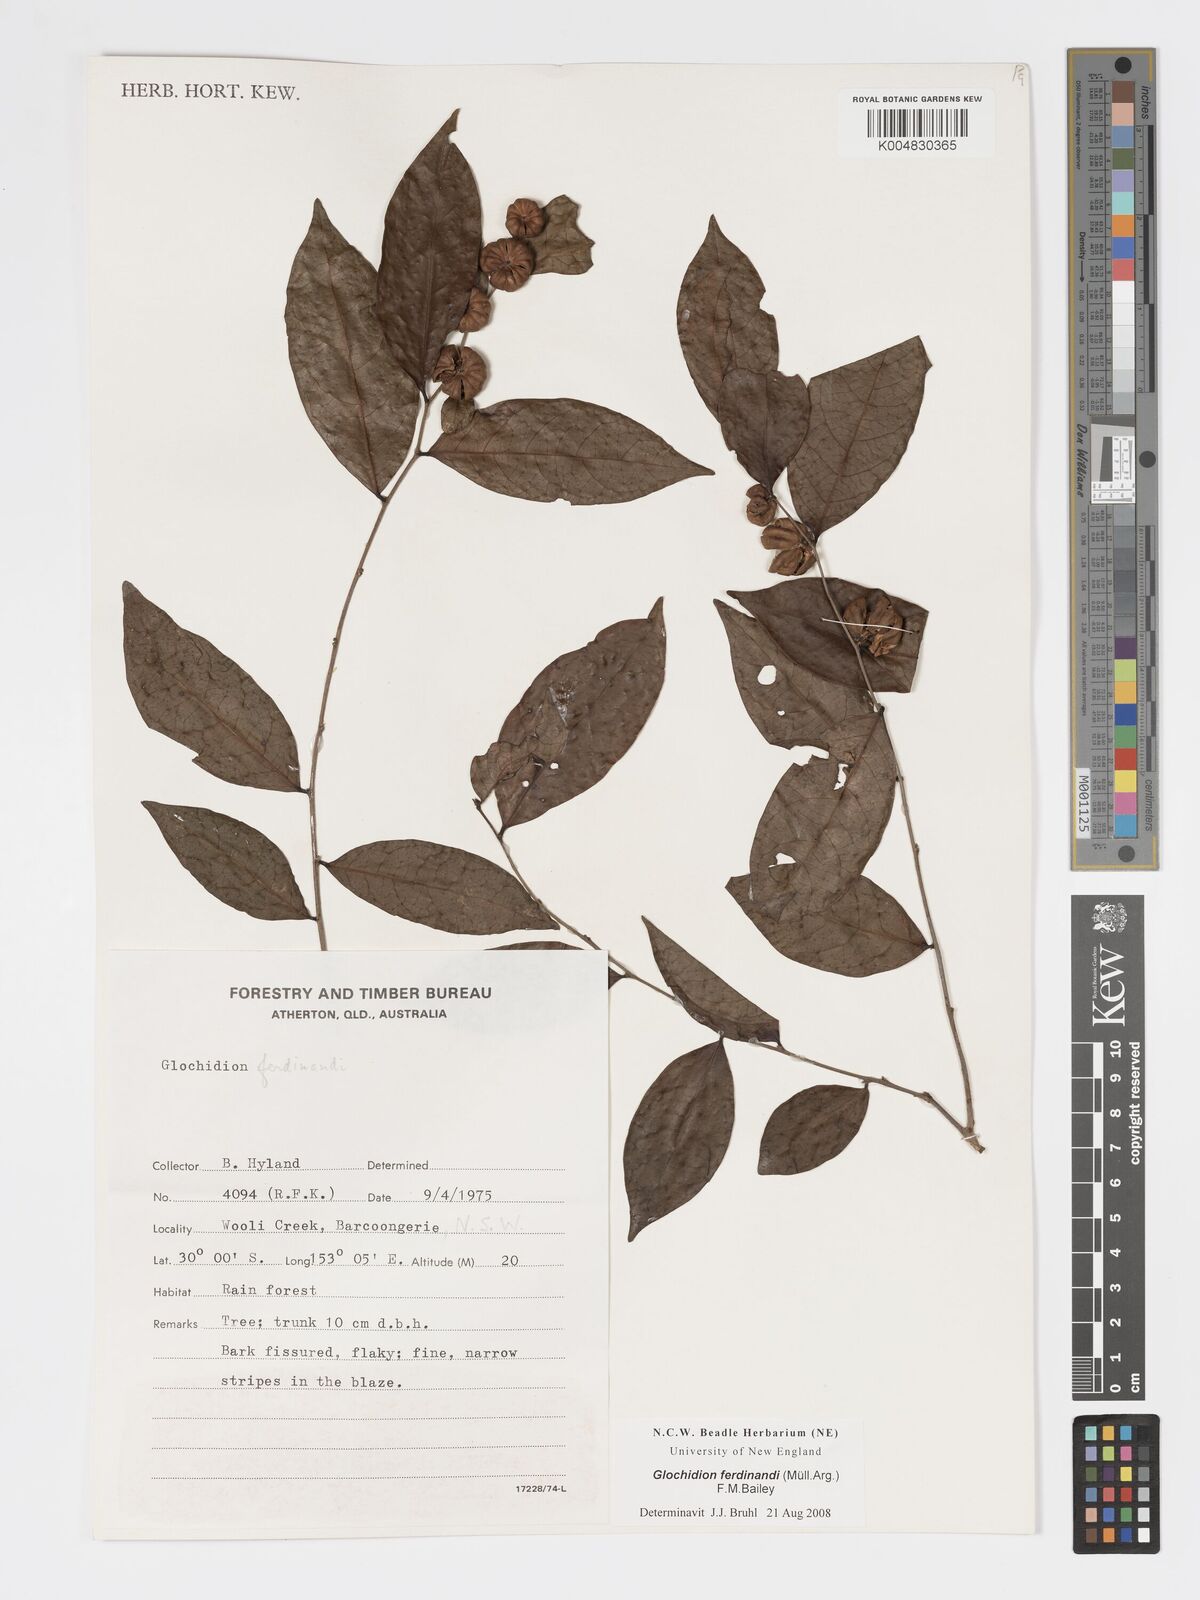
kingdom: Plantae
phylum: Tracheophyta
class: Magnoliopsida
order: Malpighiales
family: Phyllanthaceae
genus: Glochidion
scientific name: Glochidion ferdinandi
